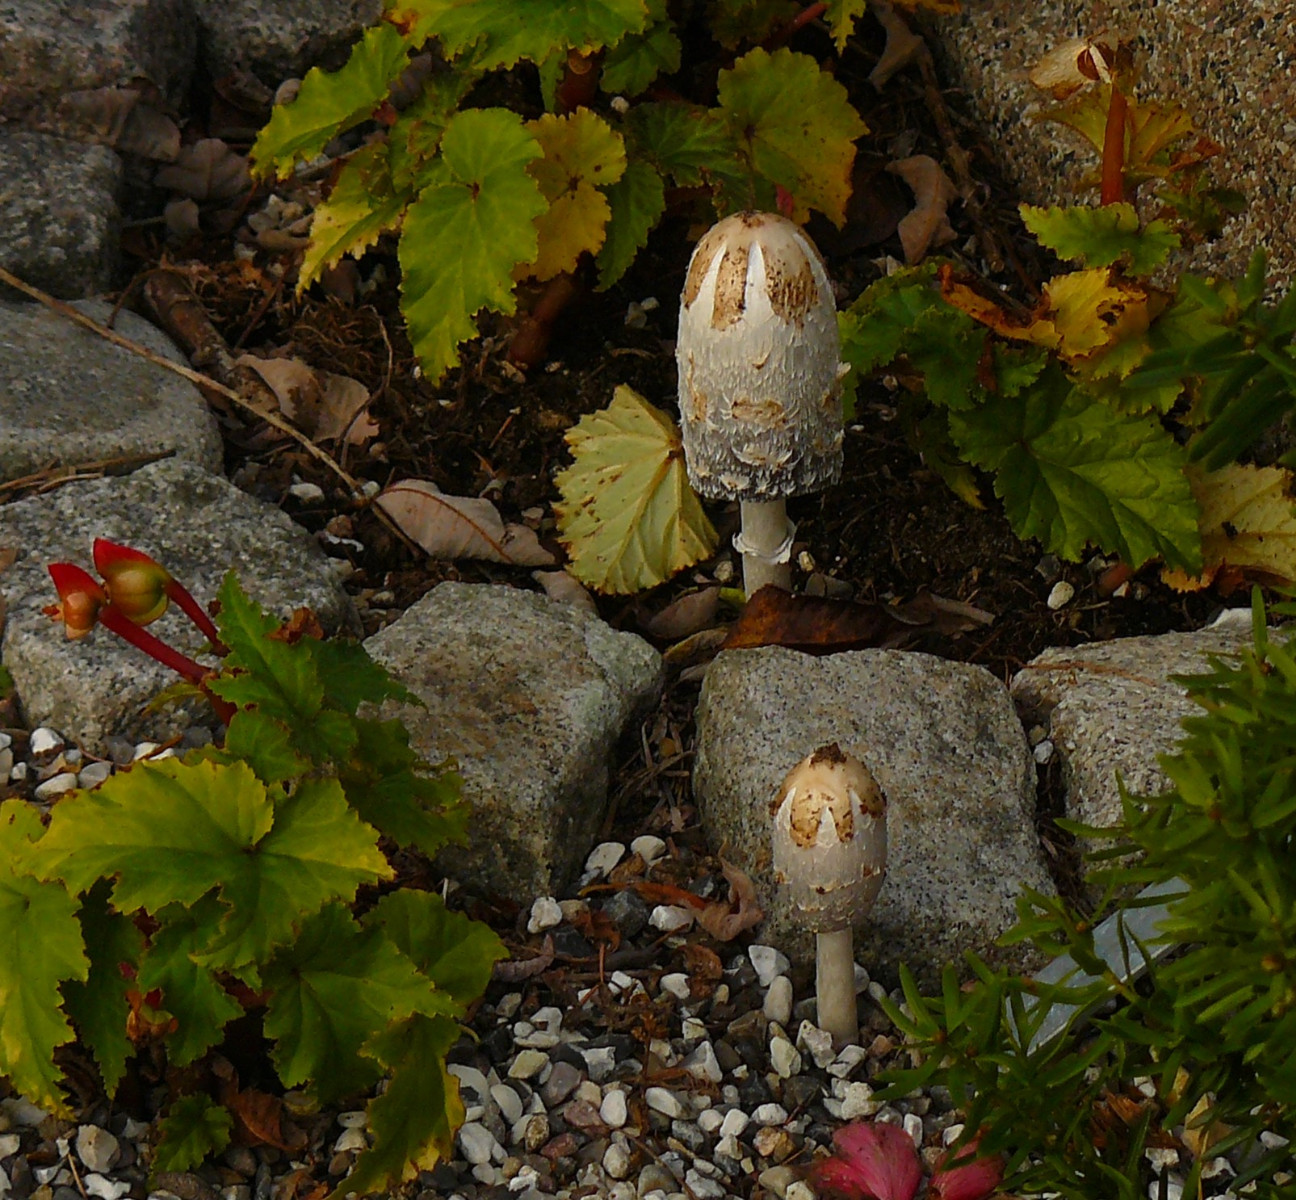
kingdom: Fungi
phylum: Basidiomycota
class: Agaricomycetes
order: Agaricales
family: Agaricaceae
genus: Coprinus
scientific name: Coprinus comatus
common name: stor parykhat
